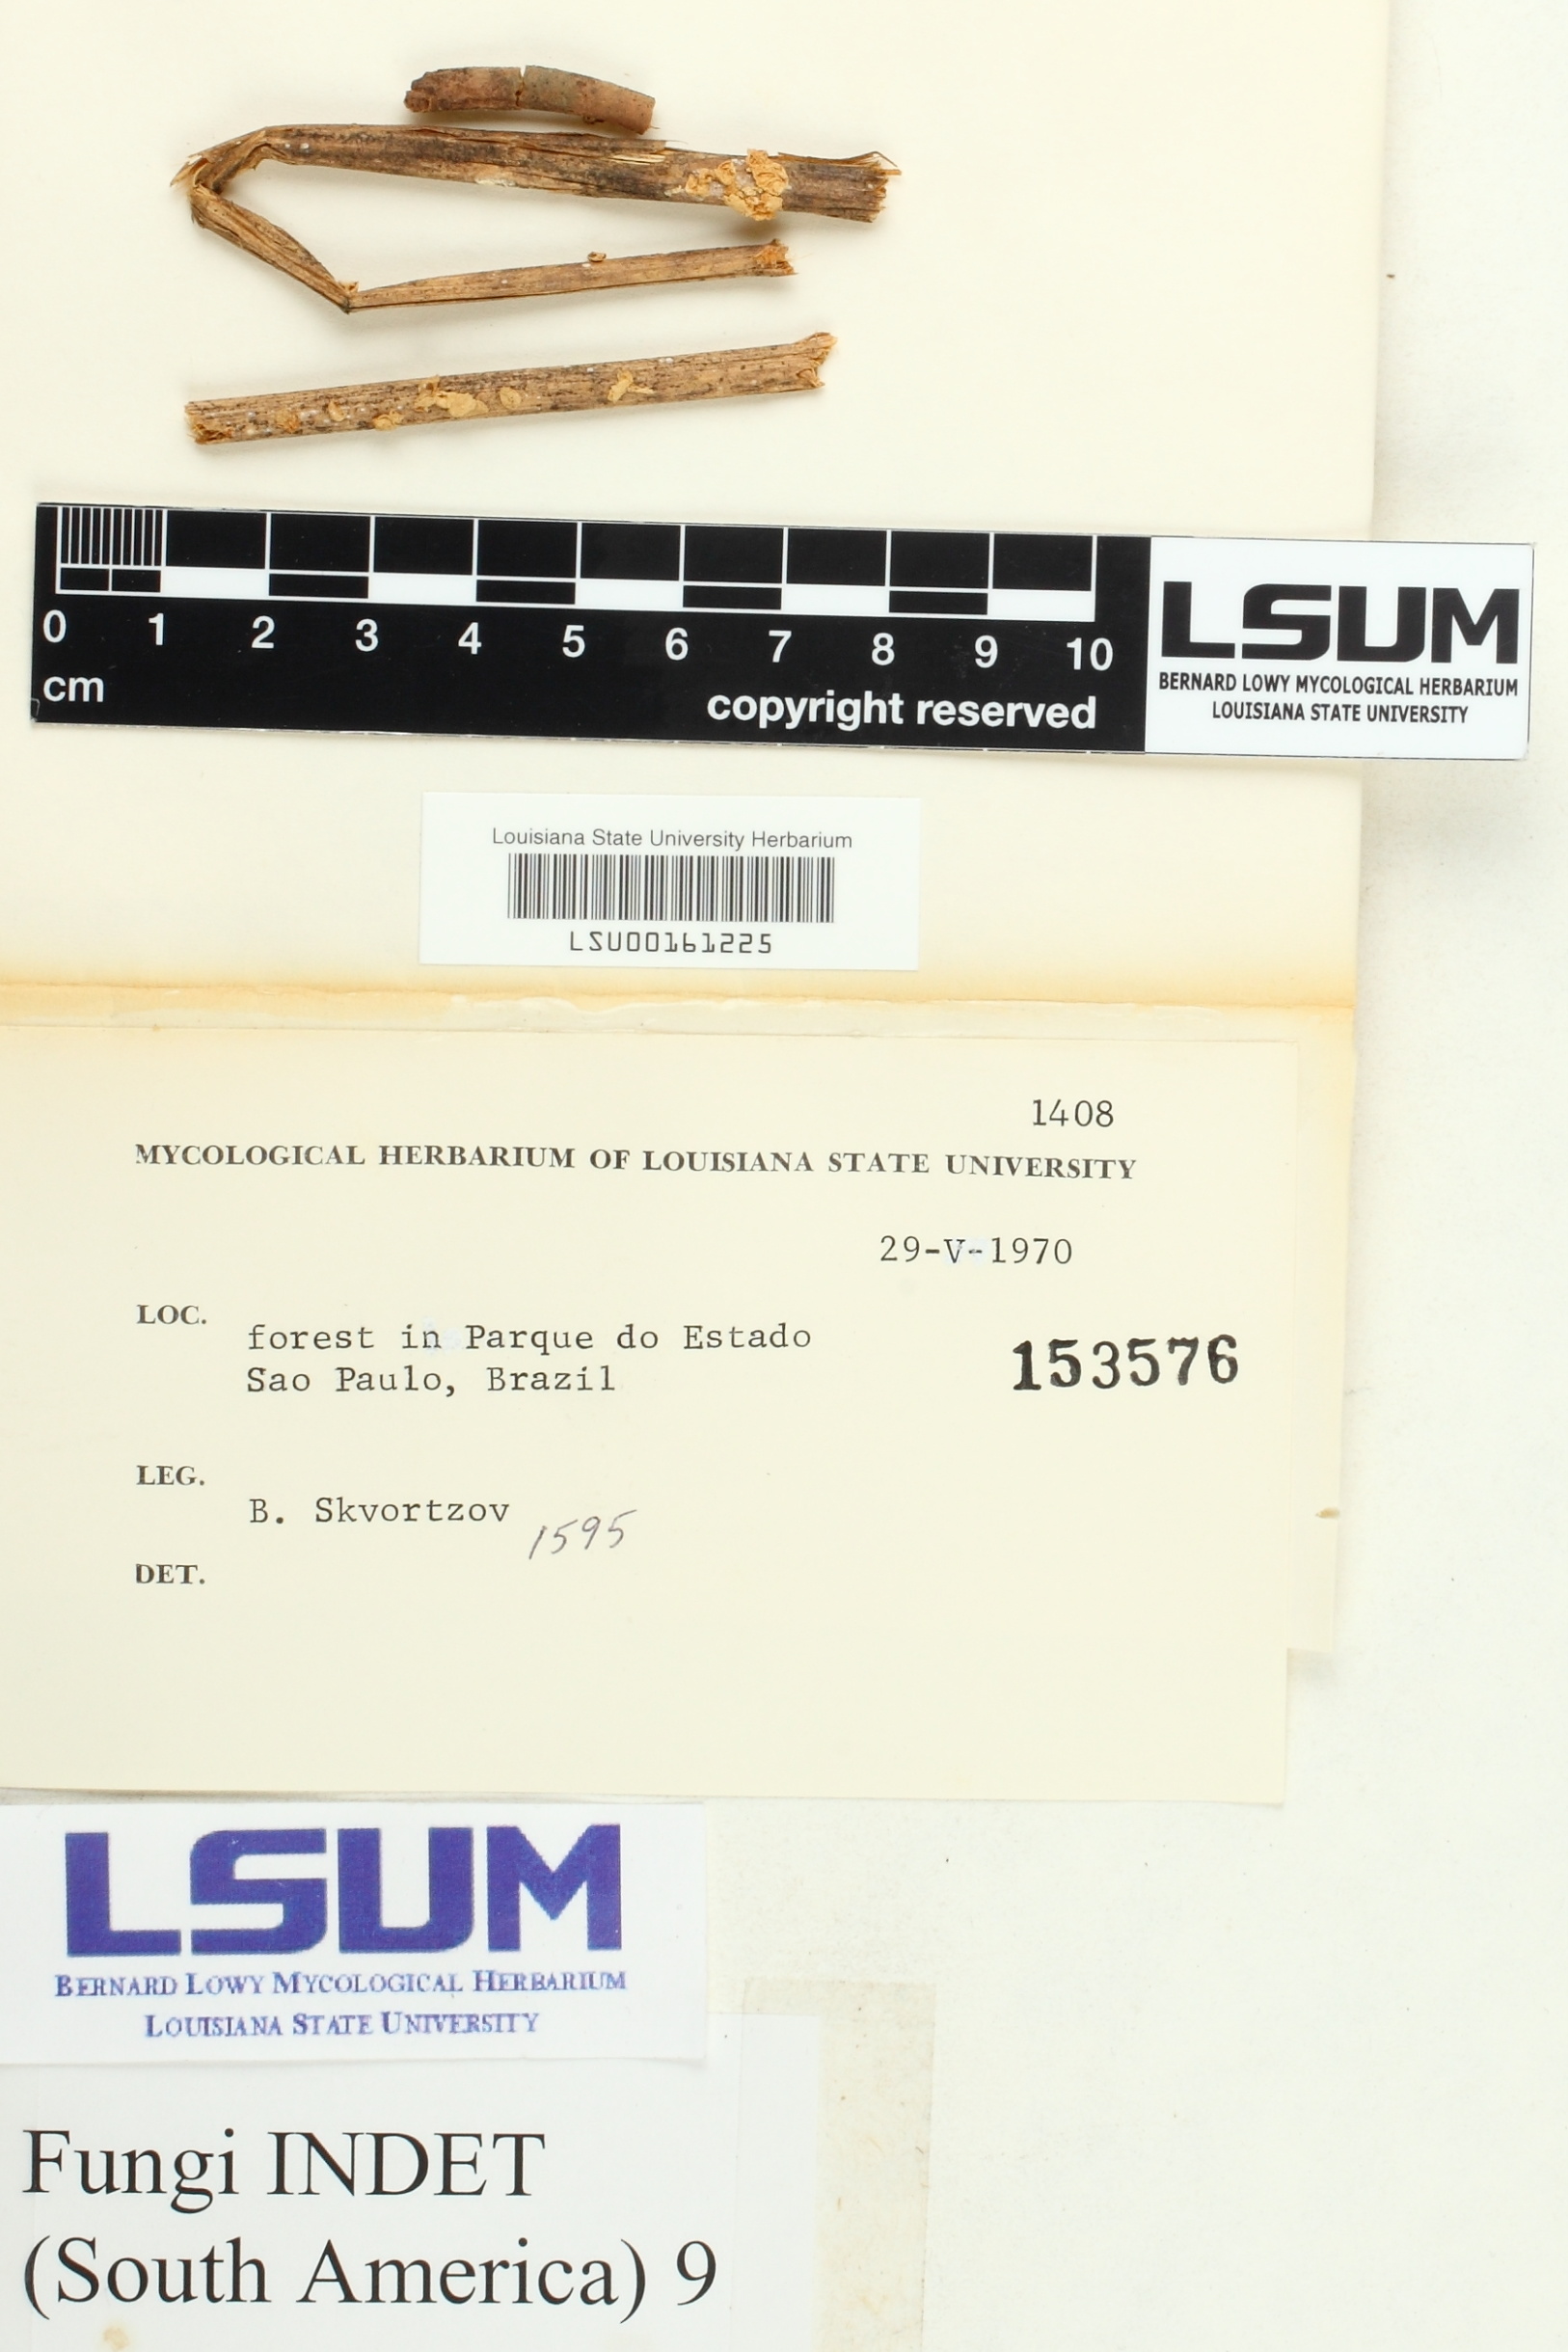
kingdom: Fungi
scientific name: Fungi
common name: Fungi
